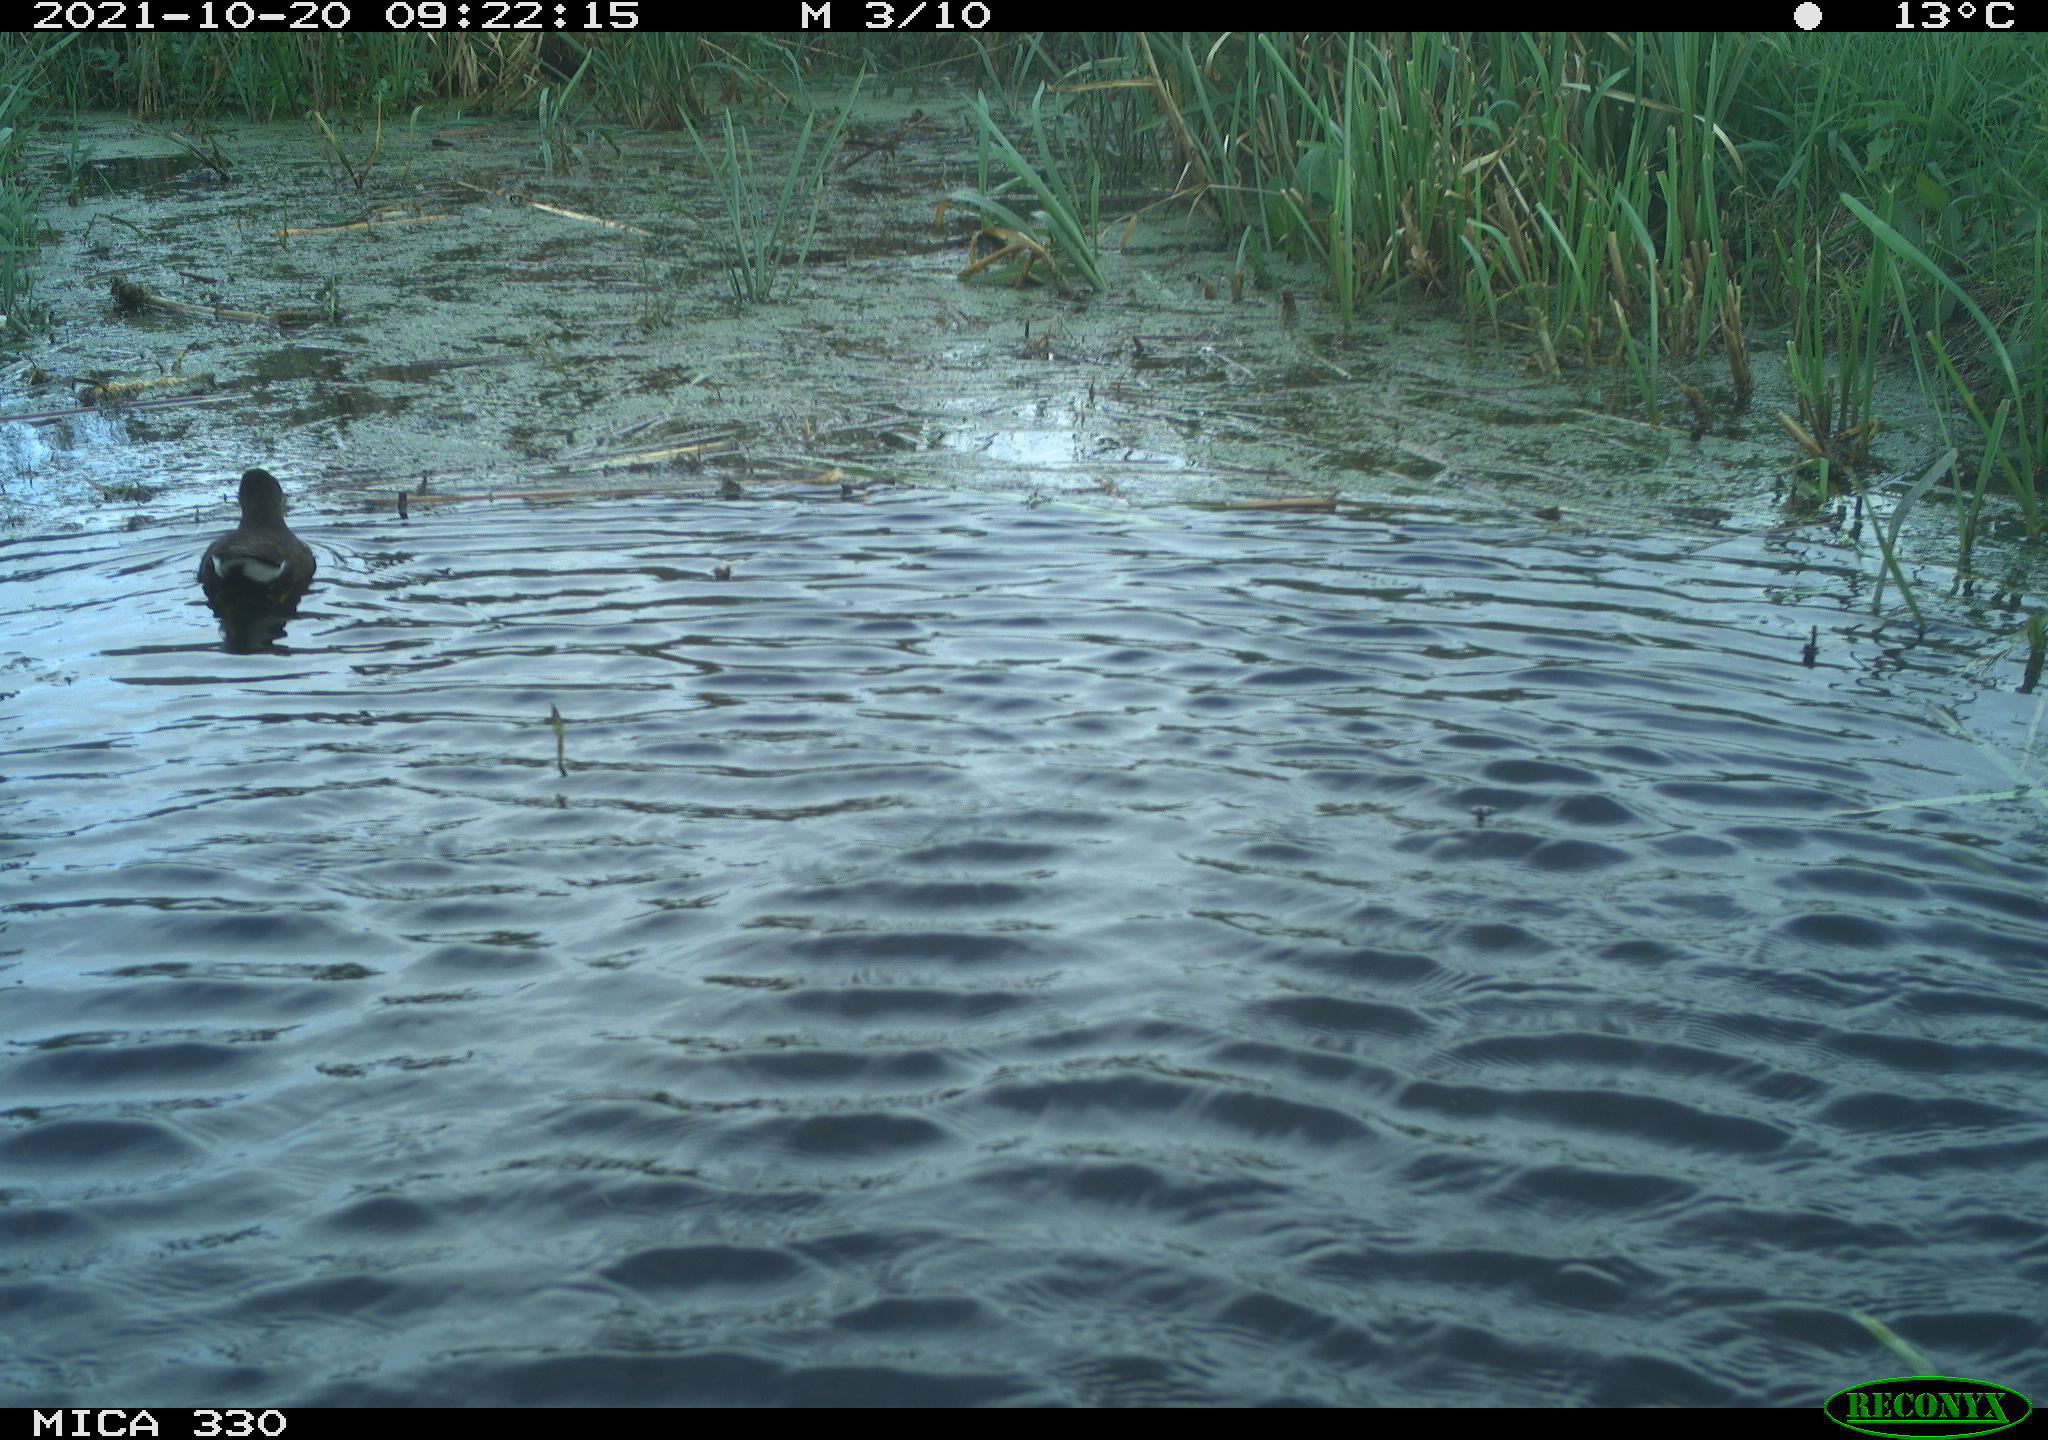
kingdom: Animalia
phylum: Chordata
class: Aves
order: Gruiformes
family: Rallidae
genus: Gallinula
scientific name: Gallinula chloropus
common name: Common moorhen
